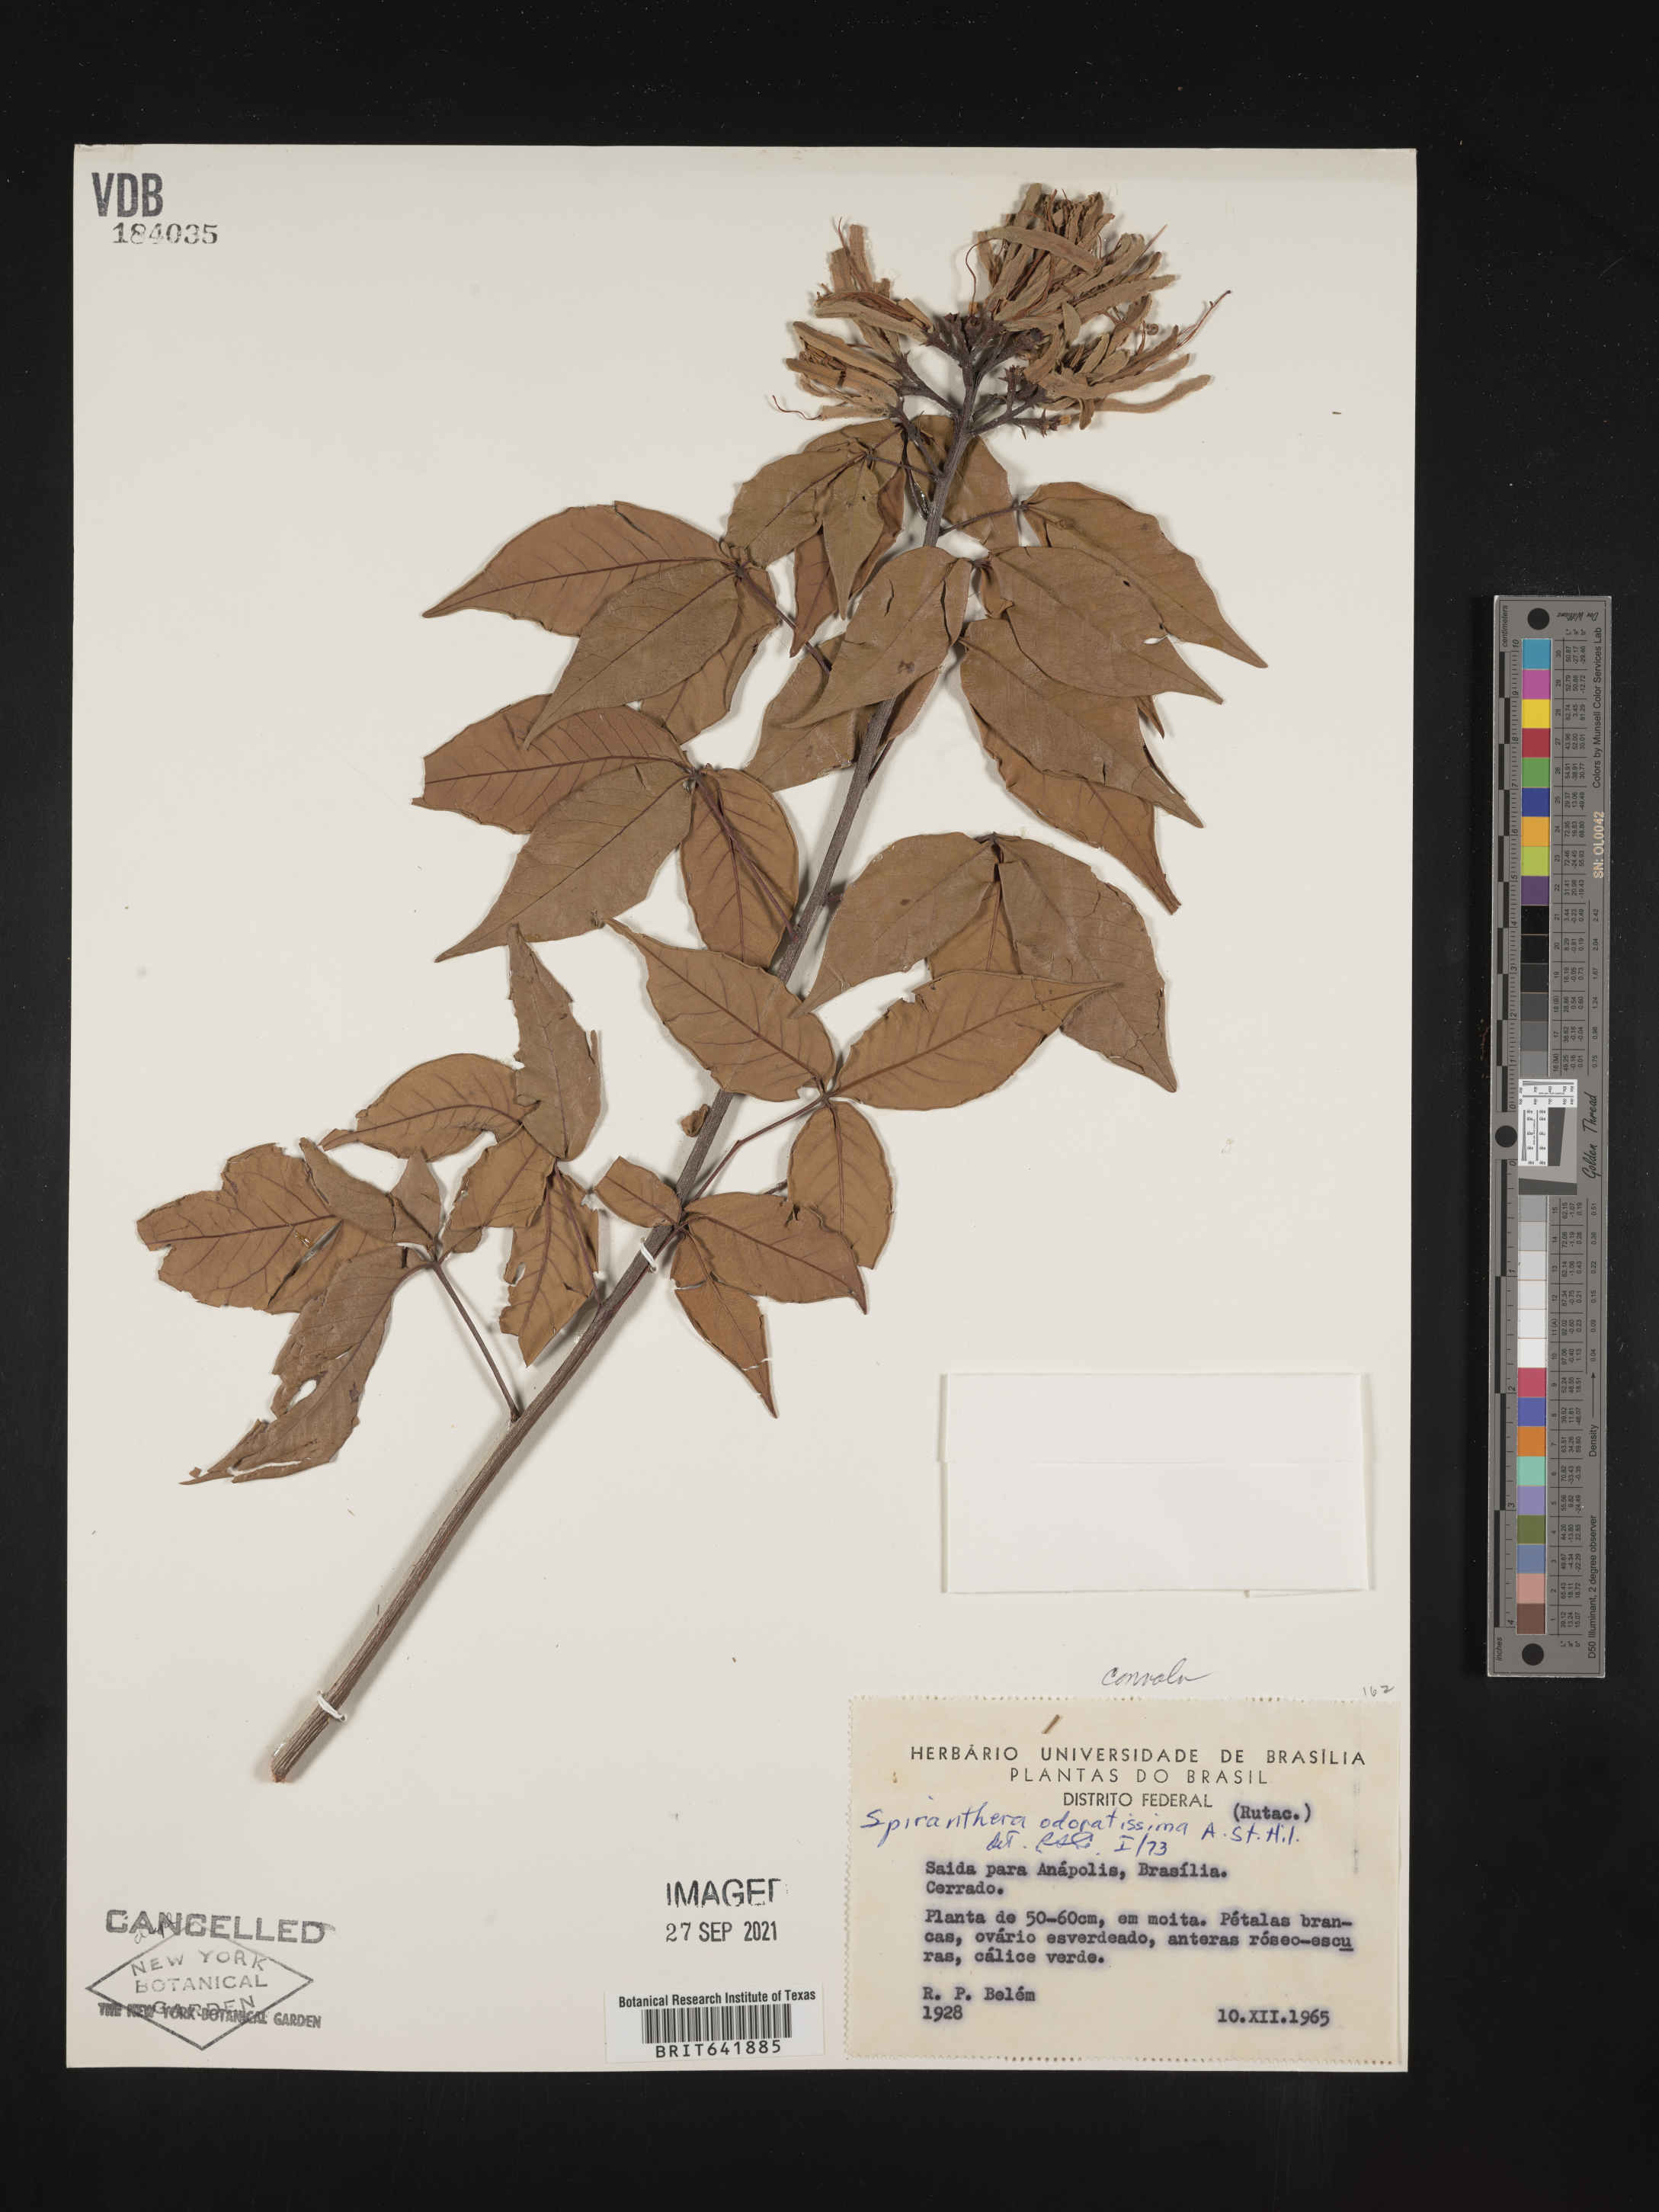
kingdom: Plantae
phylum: Tracheophyta
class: Magnoliopsida
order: Sapindales
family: Rutaceae
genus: Spiranthera
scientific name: Spiranthera
